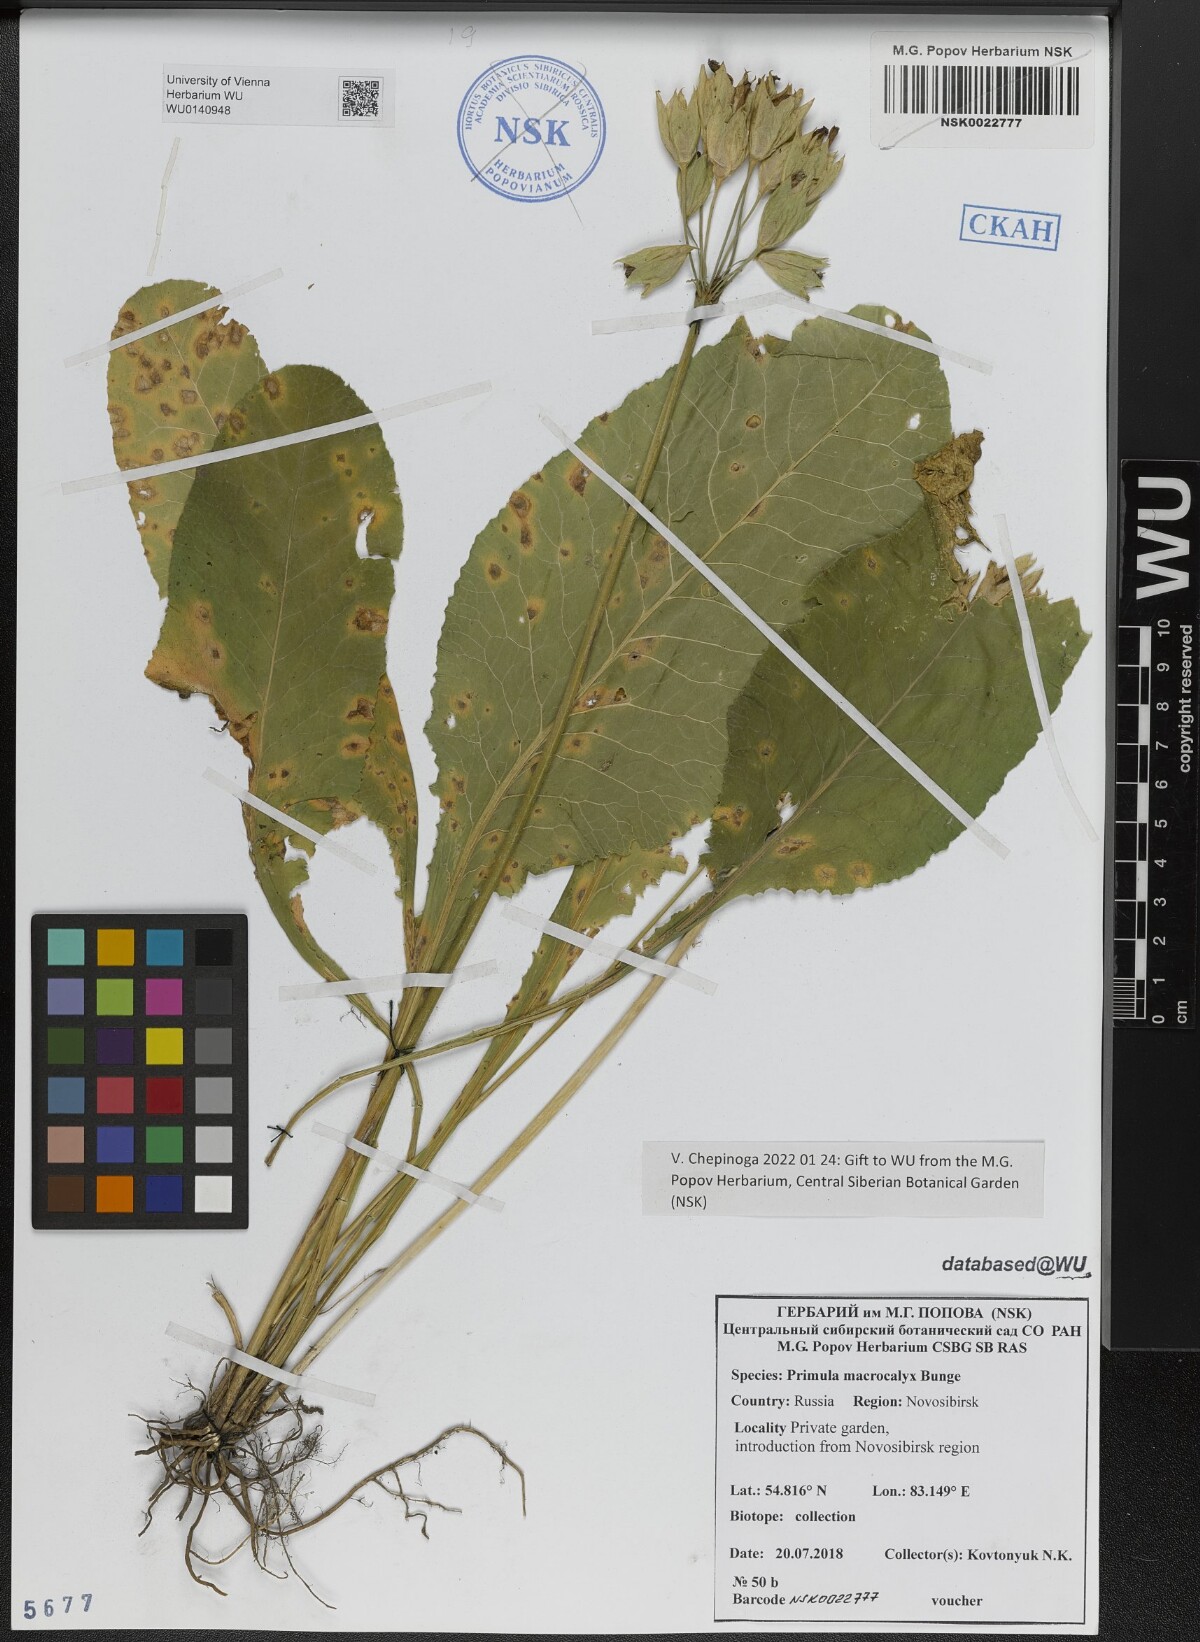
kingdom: Plantae
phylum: Tracheophyta
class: Magnoliopsida
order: Ericales
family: Primulaceae
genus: Primula
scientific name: Primula veris
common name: Cowslip
